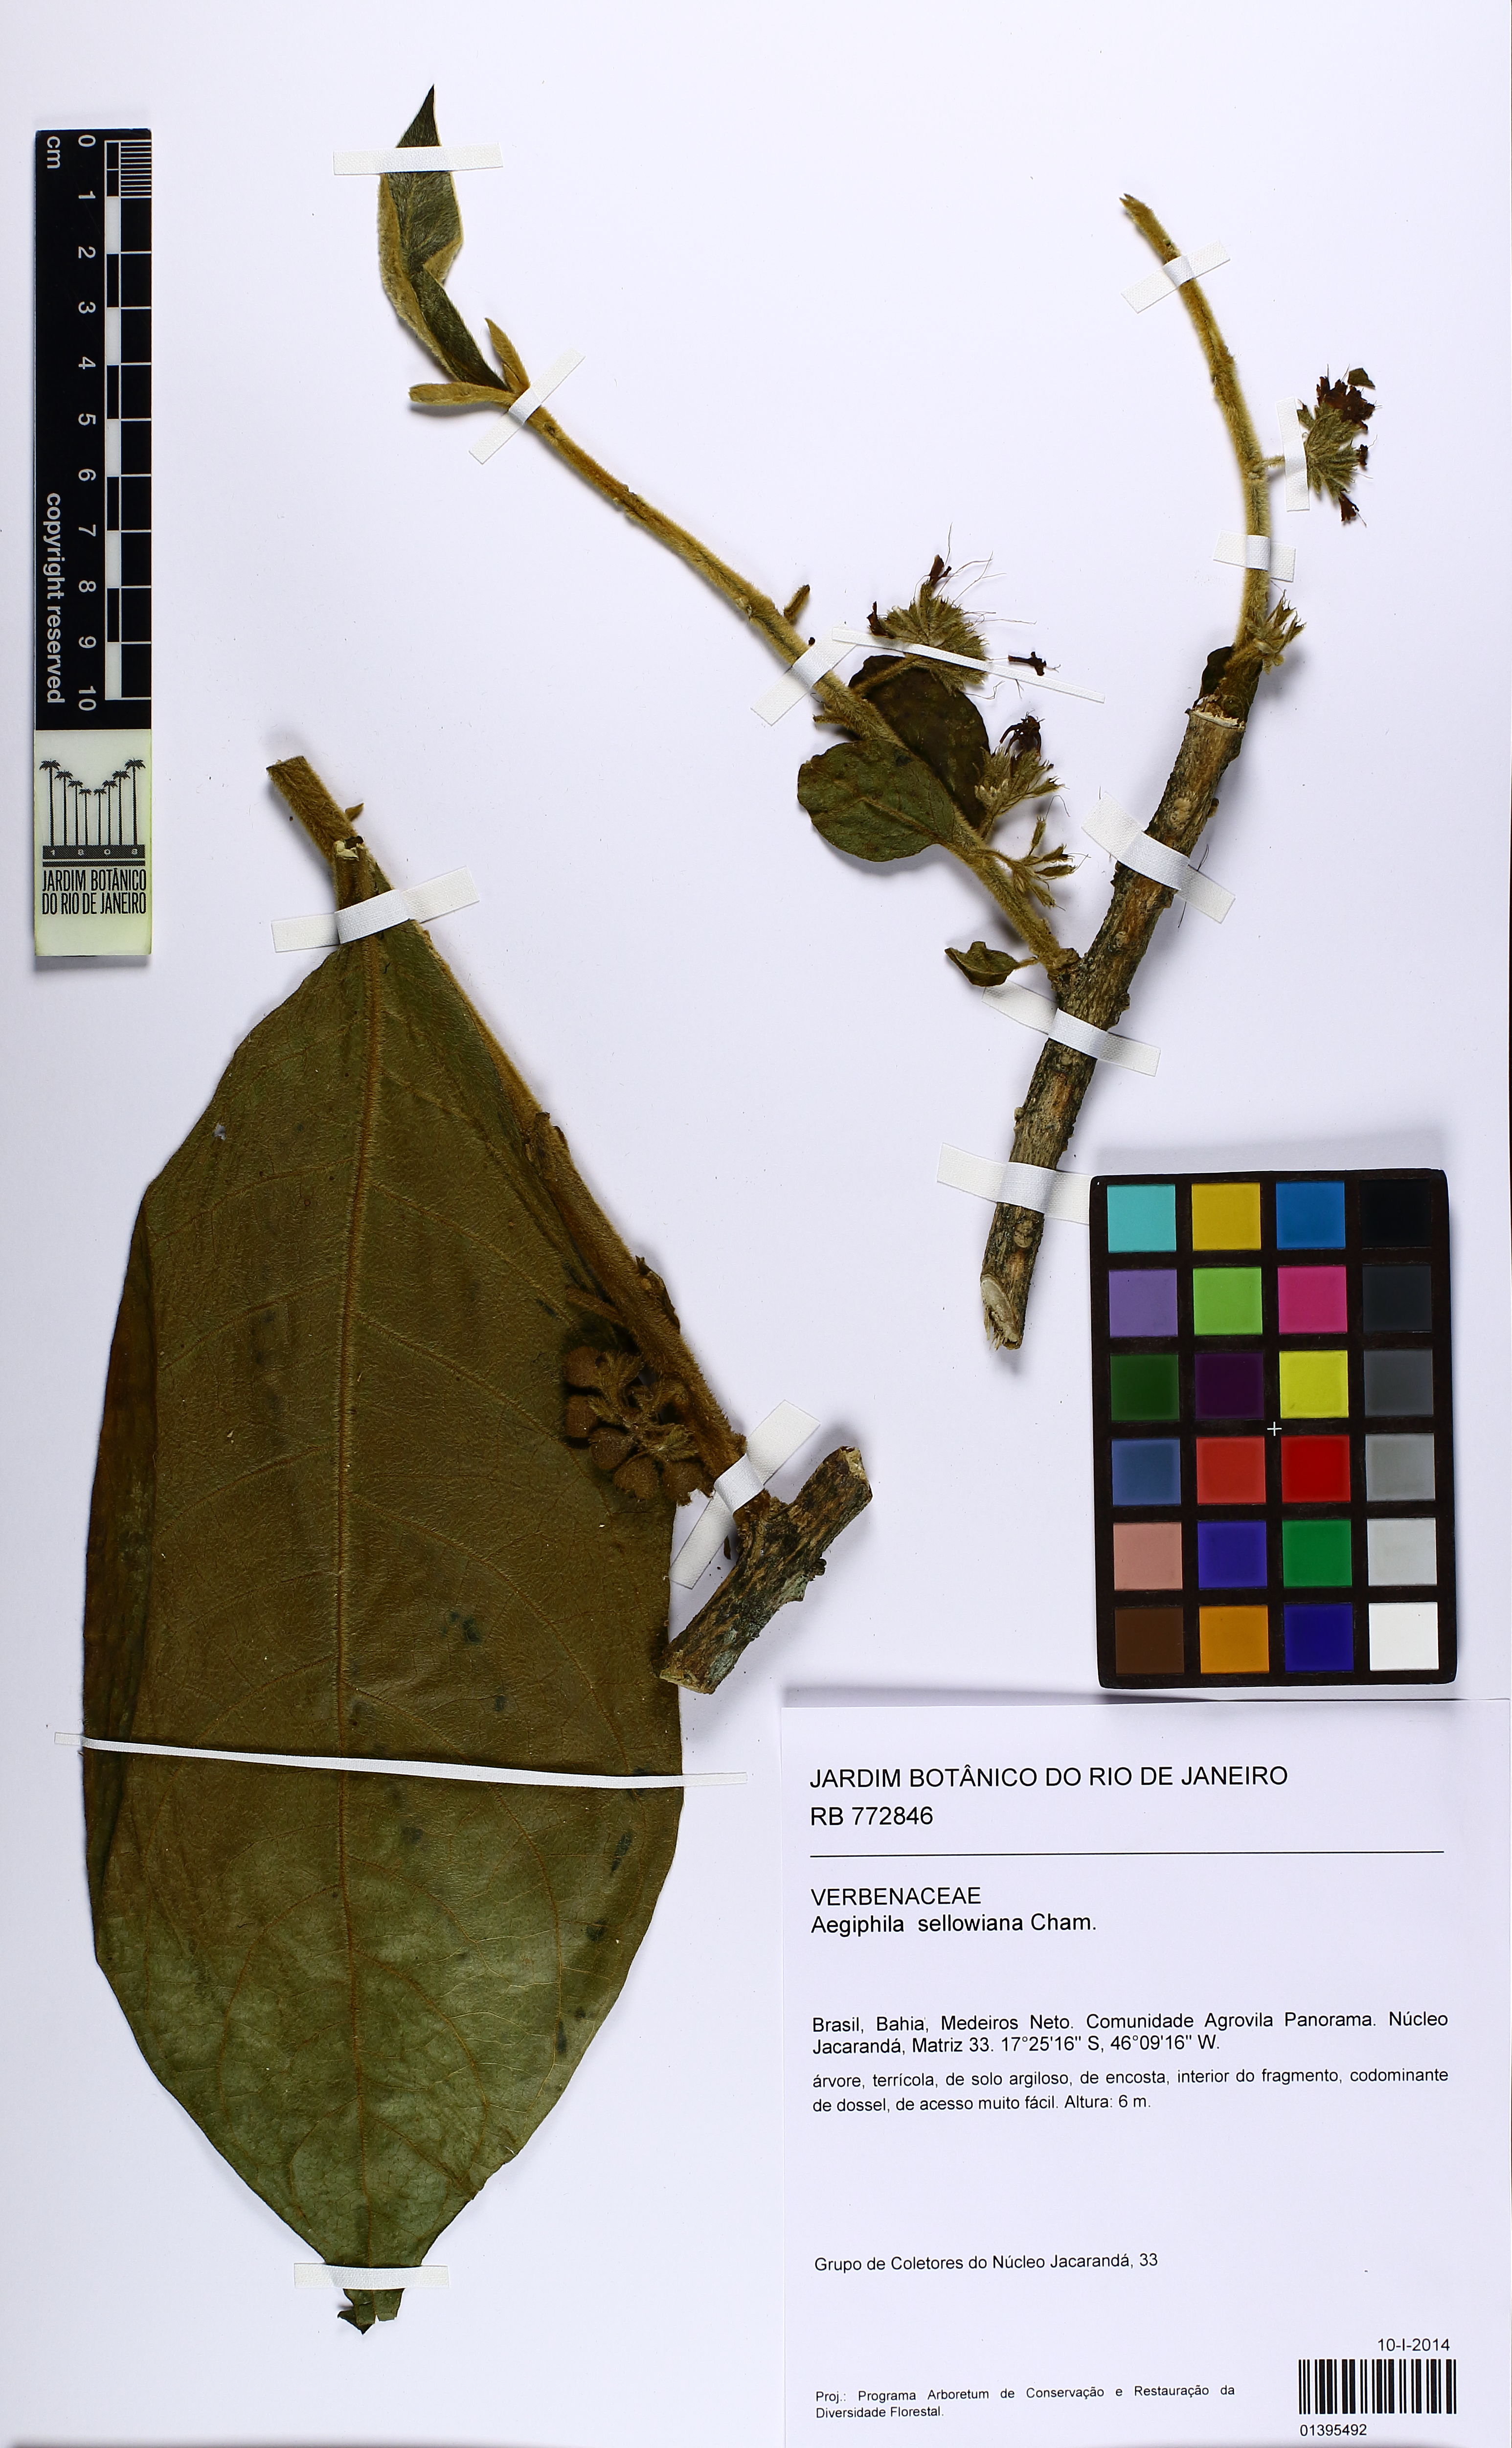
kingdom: Plantae
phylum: Tracheophyta
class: Magnoliopsida
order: Lamiales
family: Lamiaceae
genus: Aegiphila
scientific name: Aegiphila verticillata
